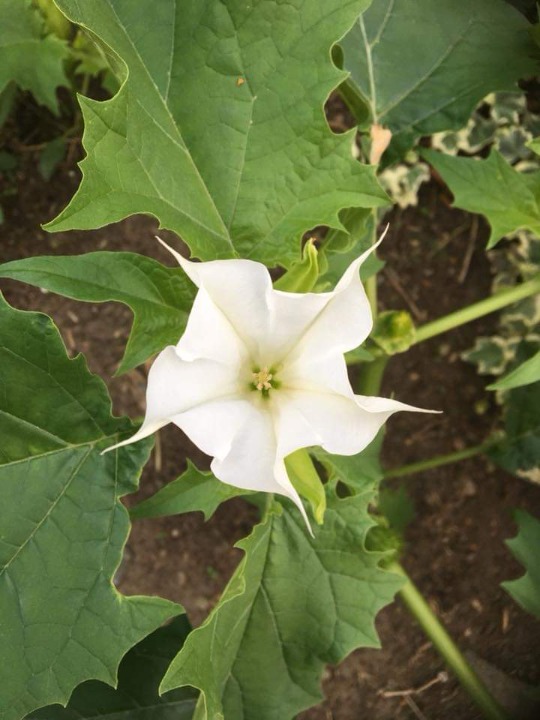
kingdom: Plantae
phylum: Tracheophyta
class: Magnoliopsida
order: Solanales
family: Solanaceae
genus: Datura
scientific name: Datura stramonium
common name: Hvid pigæble
